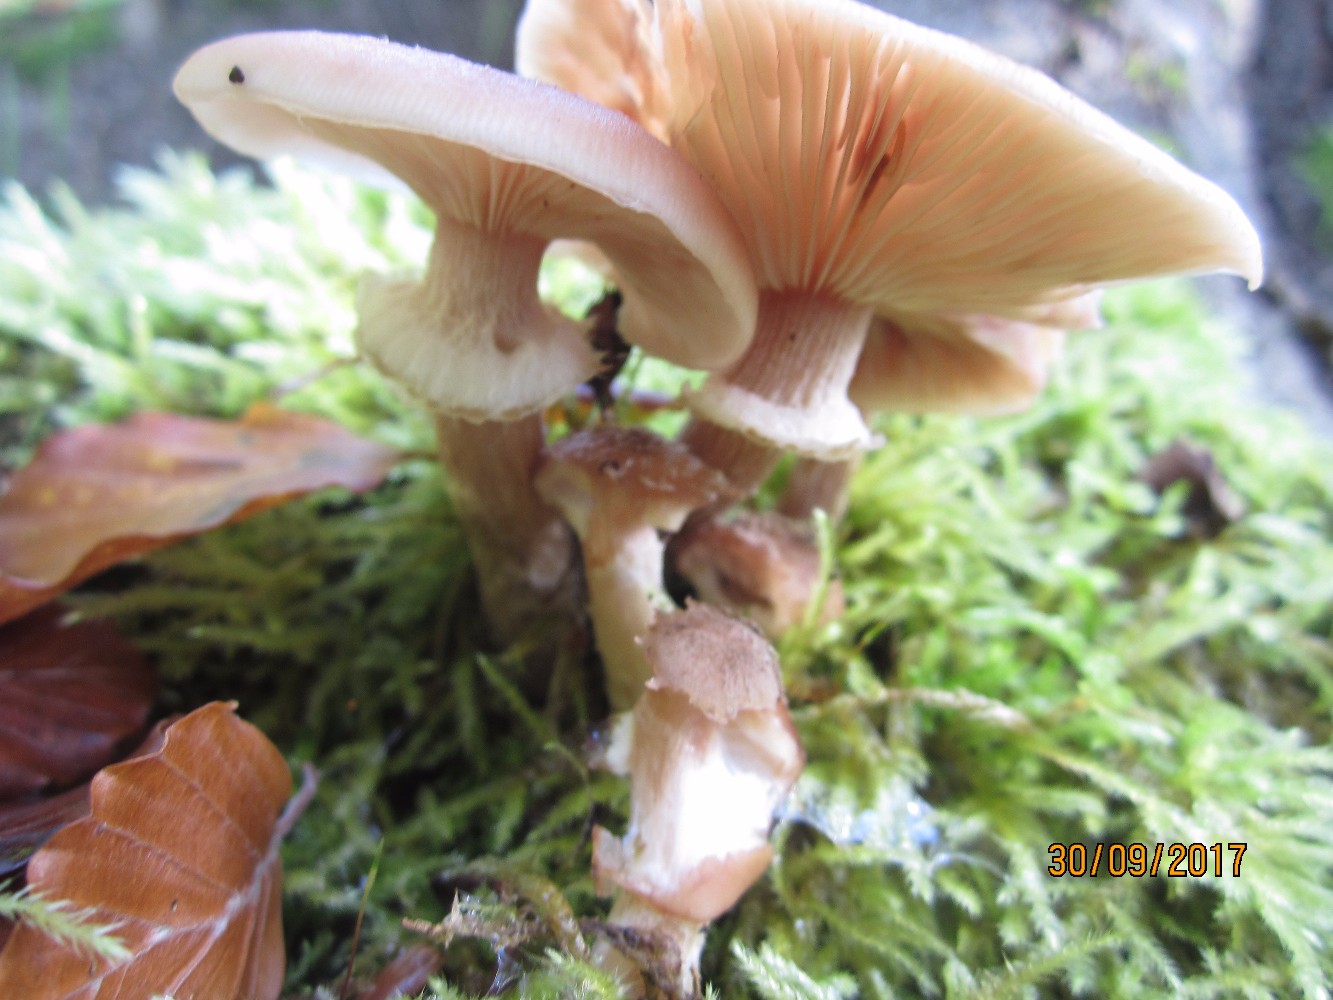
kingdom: Fungi
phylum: Basidiomycota
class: Agaricomycetes
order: Agaricales
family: Physalacriaceae
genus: Armillaria
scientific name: Armillaria
